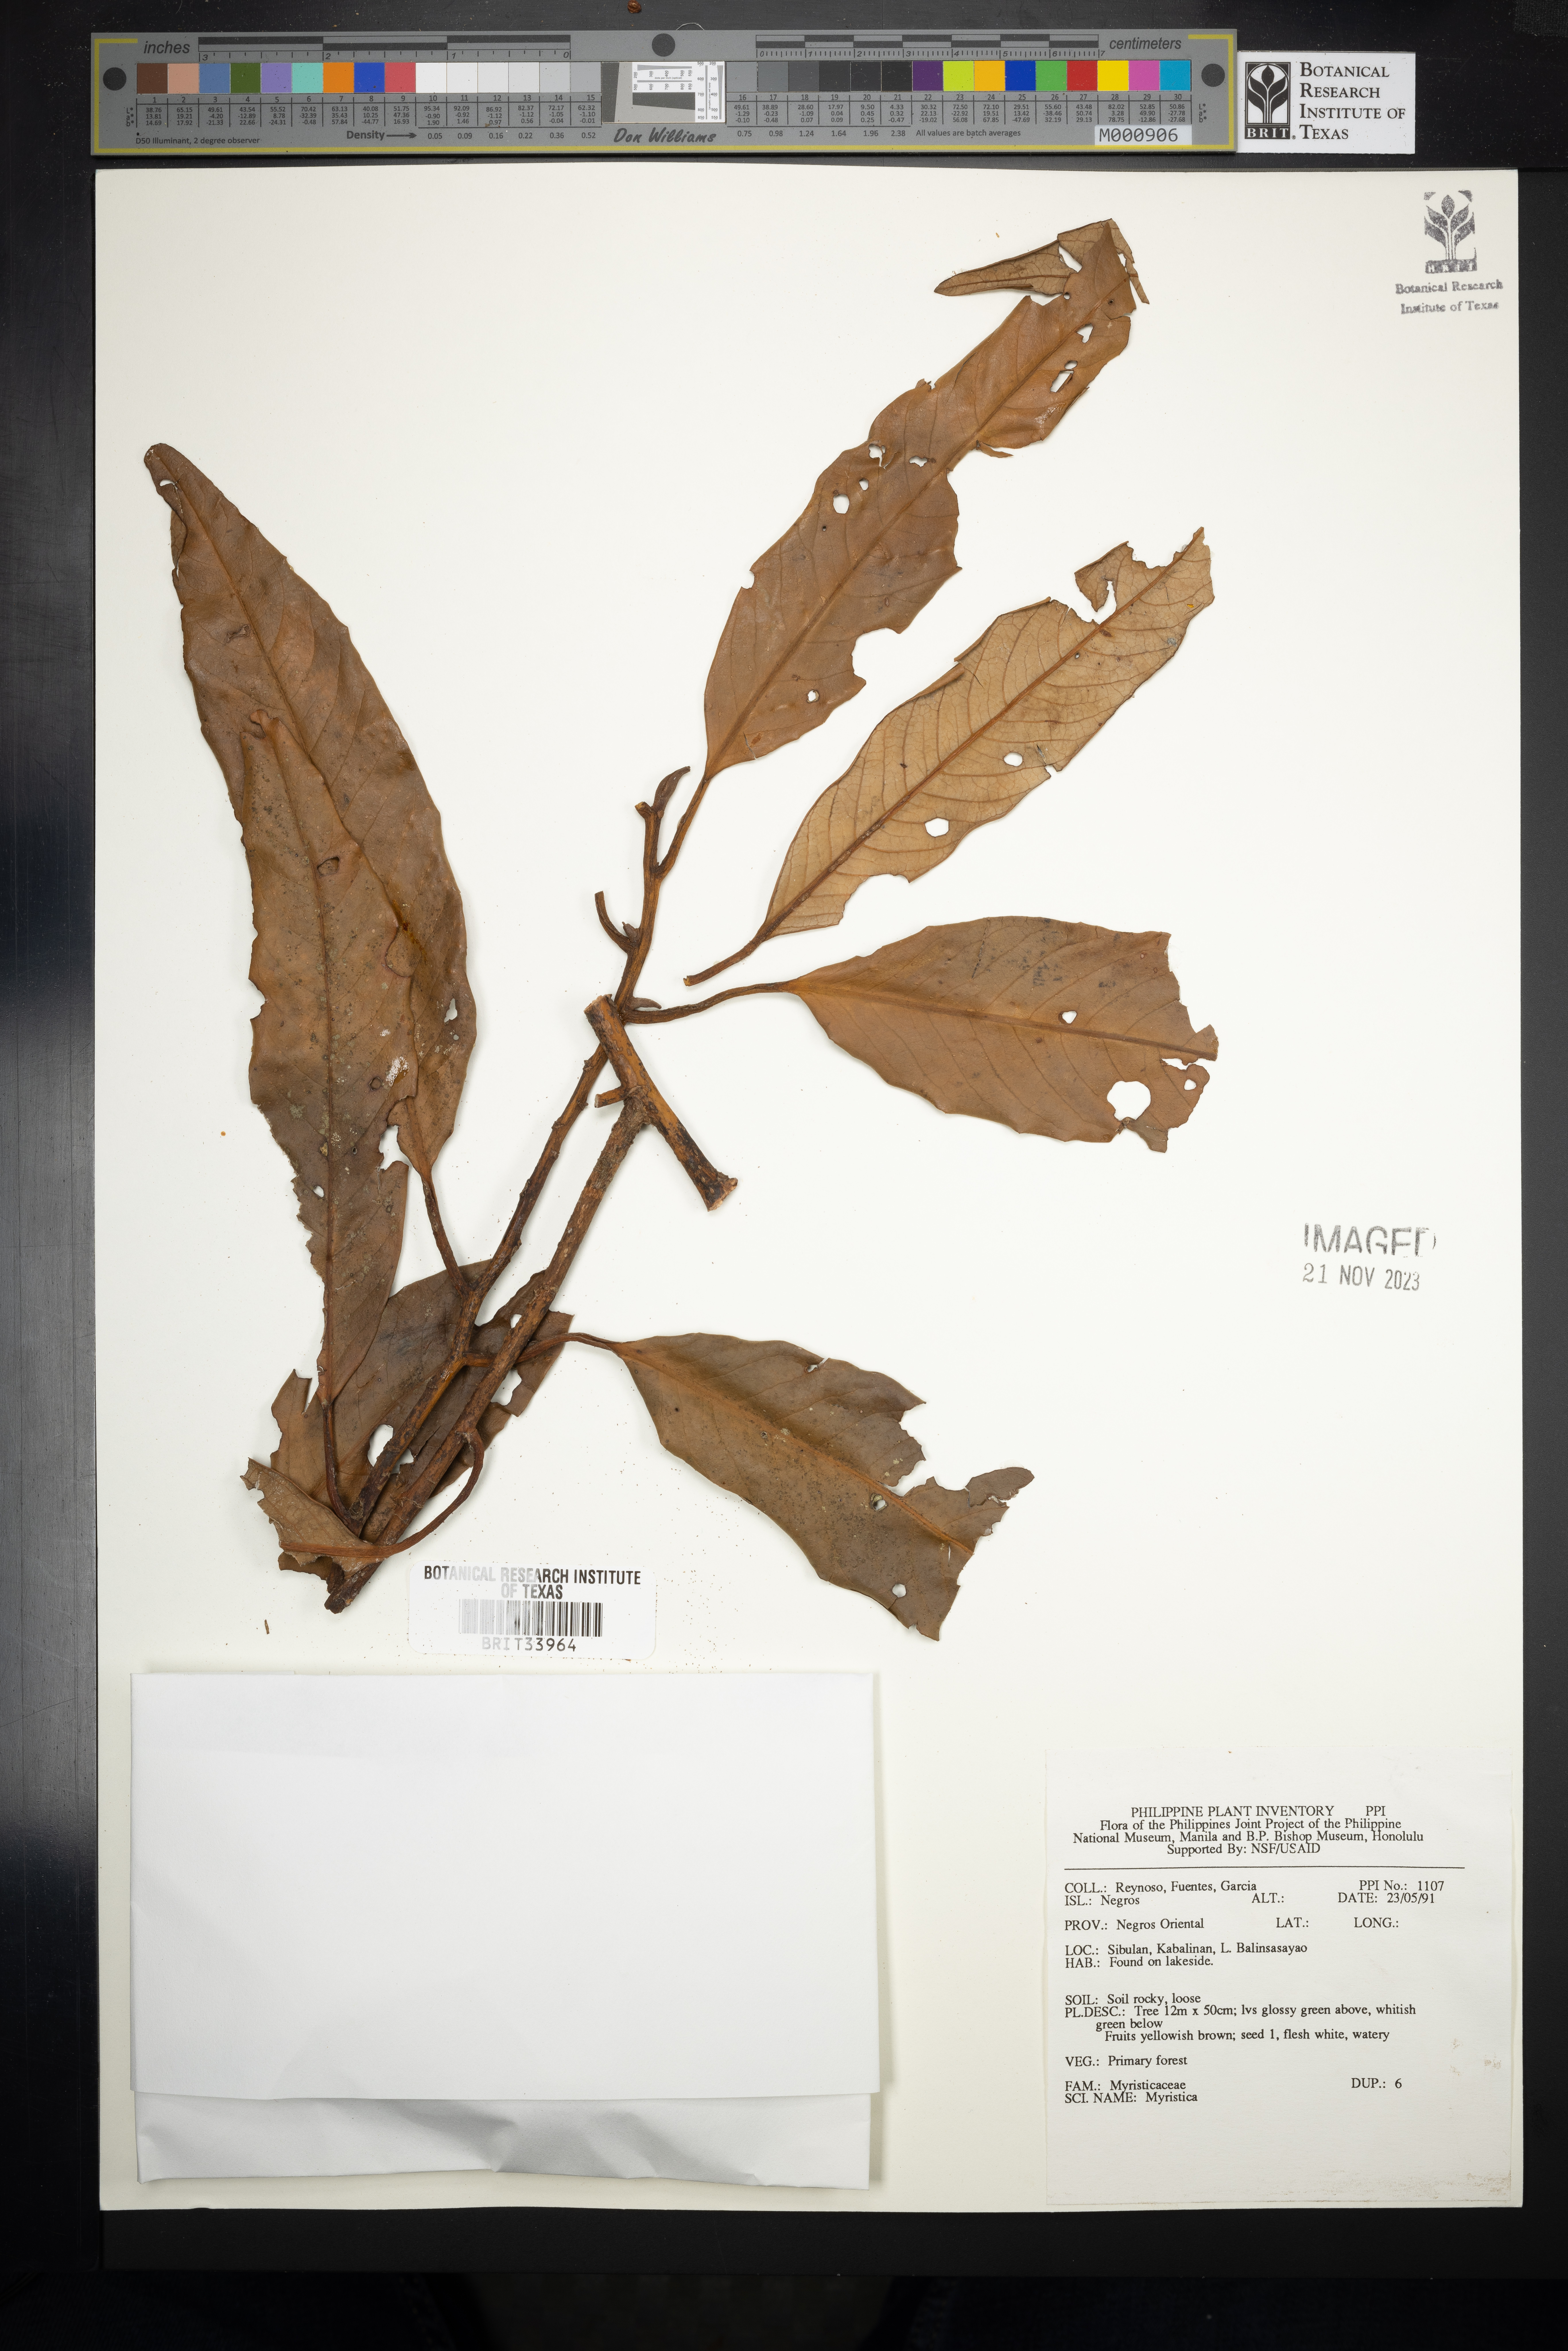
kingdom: Plantae
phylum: Tracheophyta
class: Magnoliopsida
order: Magnoliales
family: Myristicaceae
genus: Myristica
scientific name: Myristica
